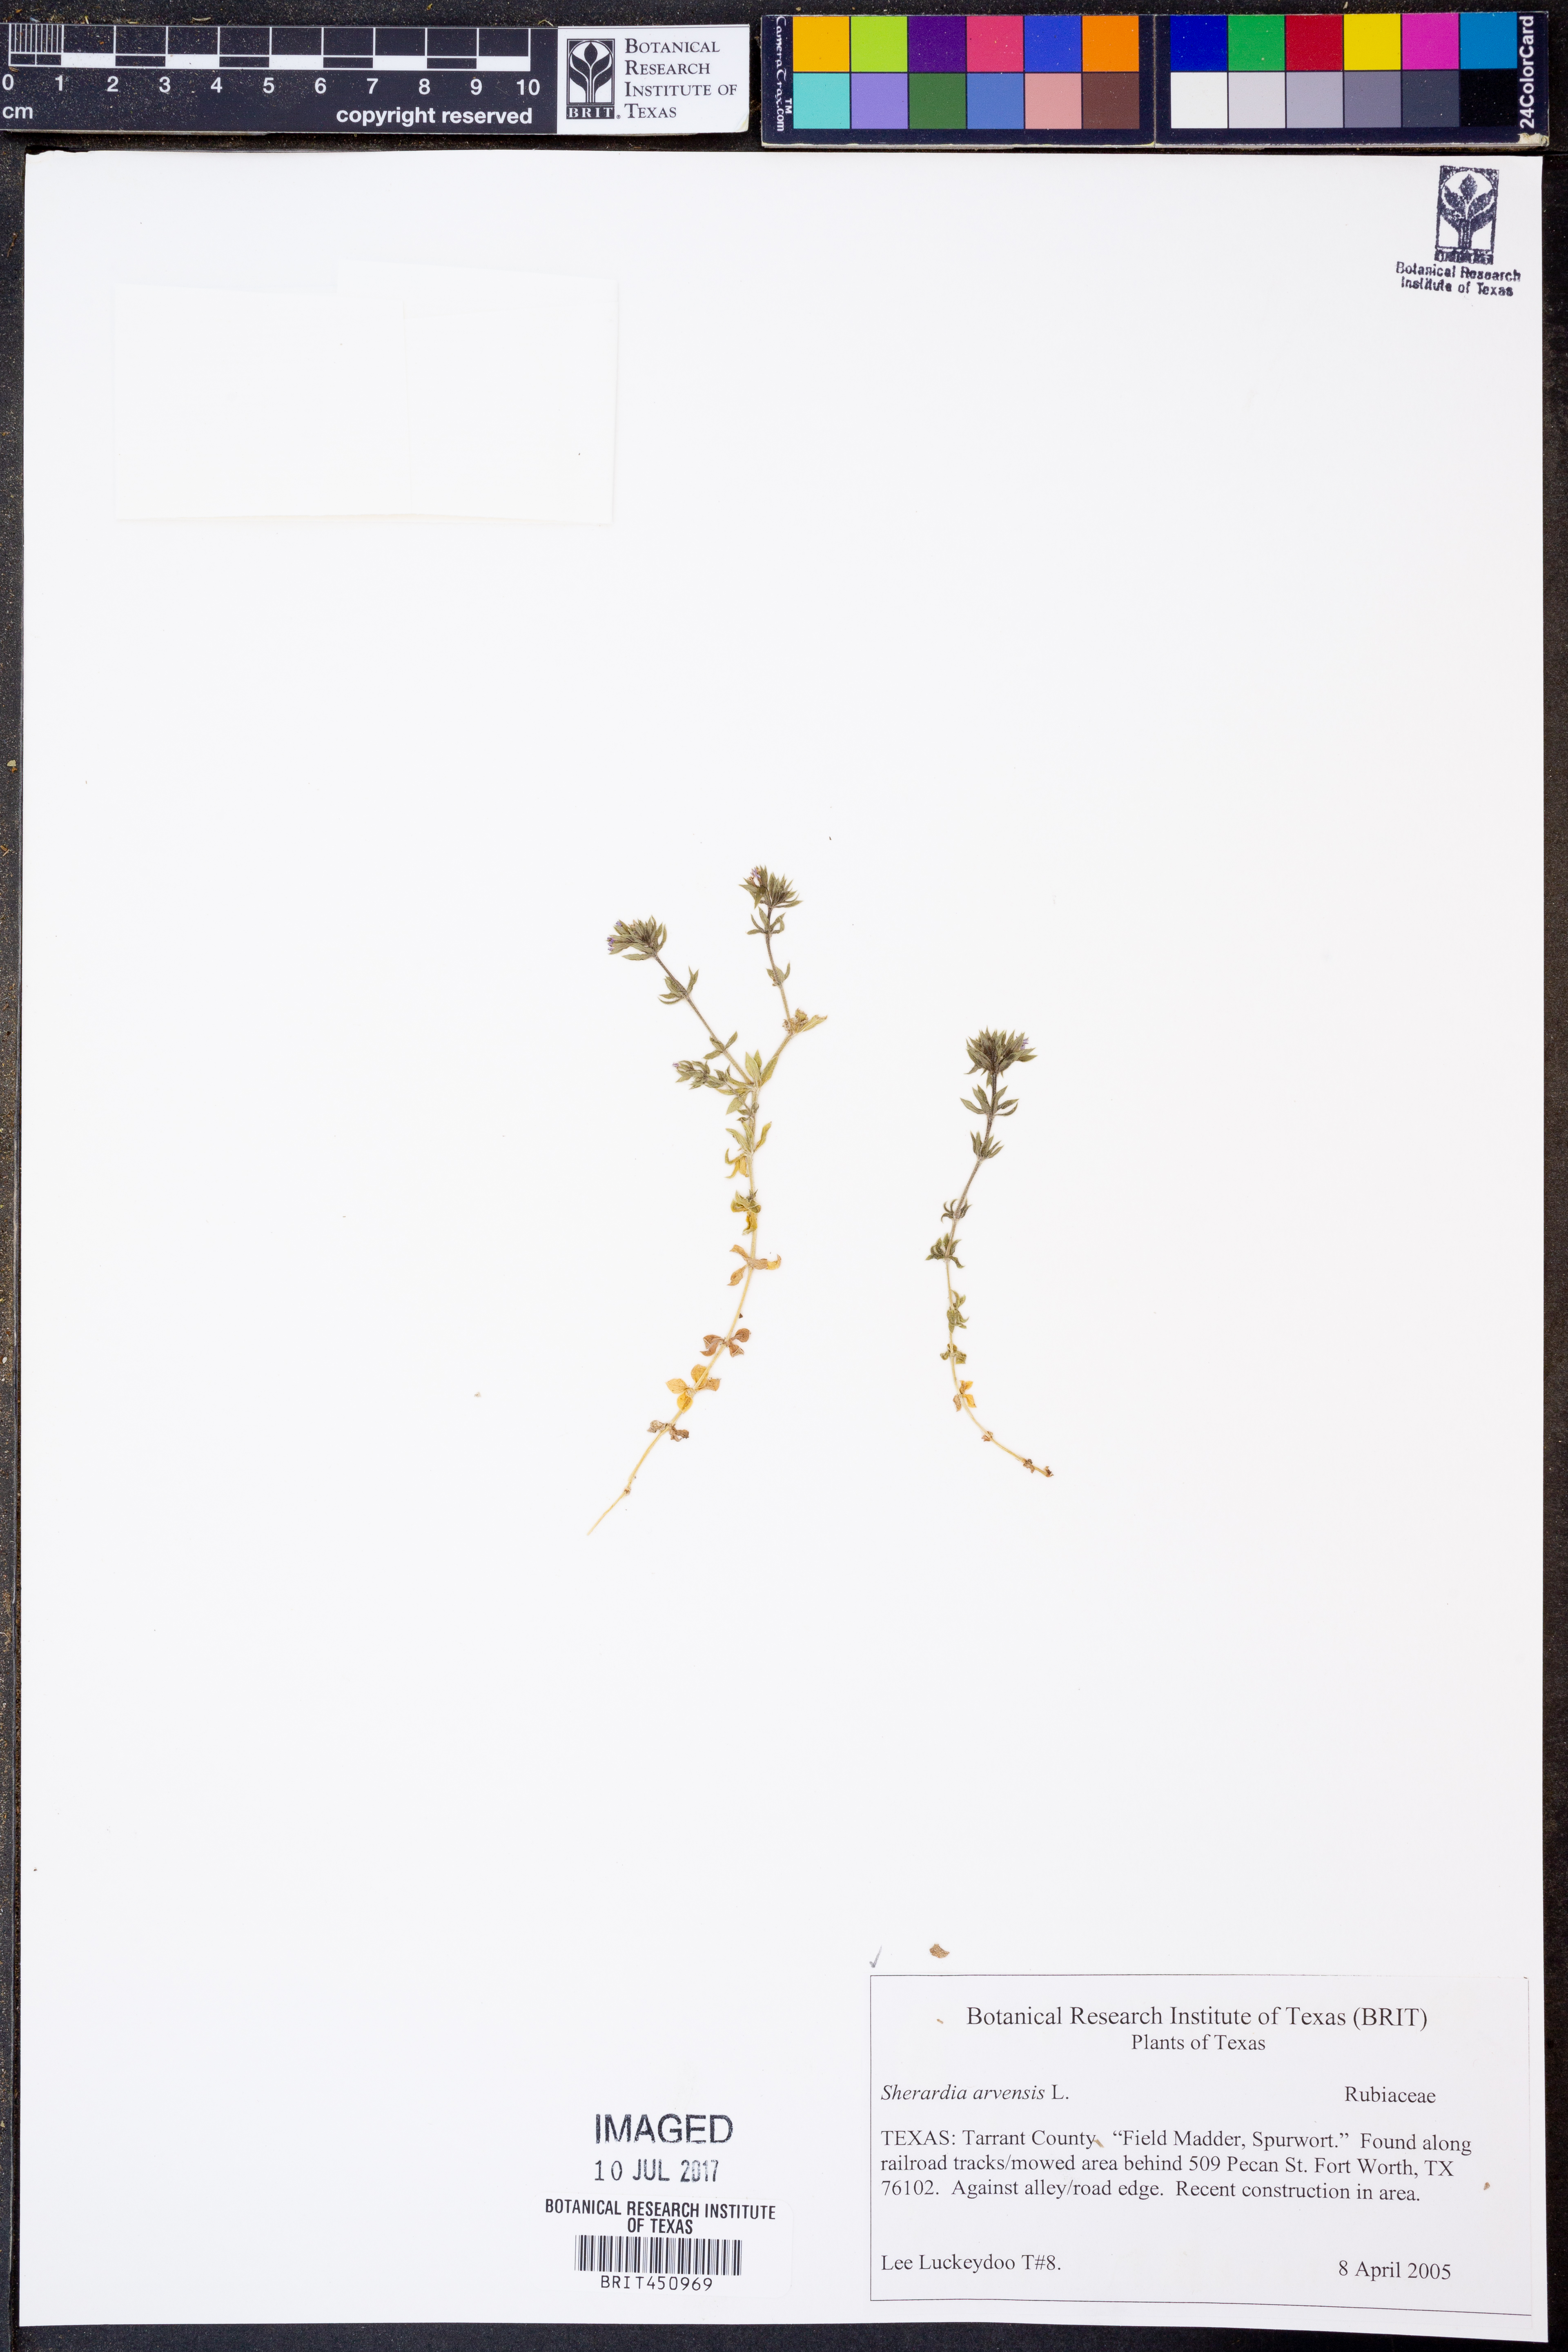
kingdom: Plantae
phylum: Tracheophyta
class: Magnoliopsida
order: Gentianales
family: Rubiaceae
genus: Sherardia
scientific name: Sherardia arvensis
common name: Field madder
